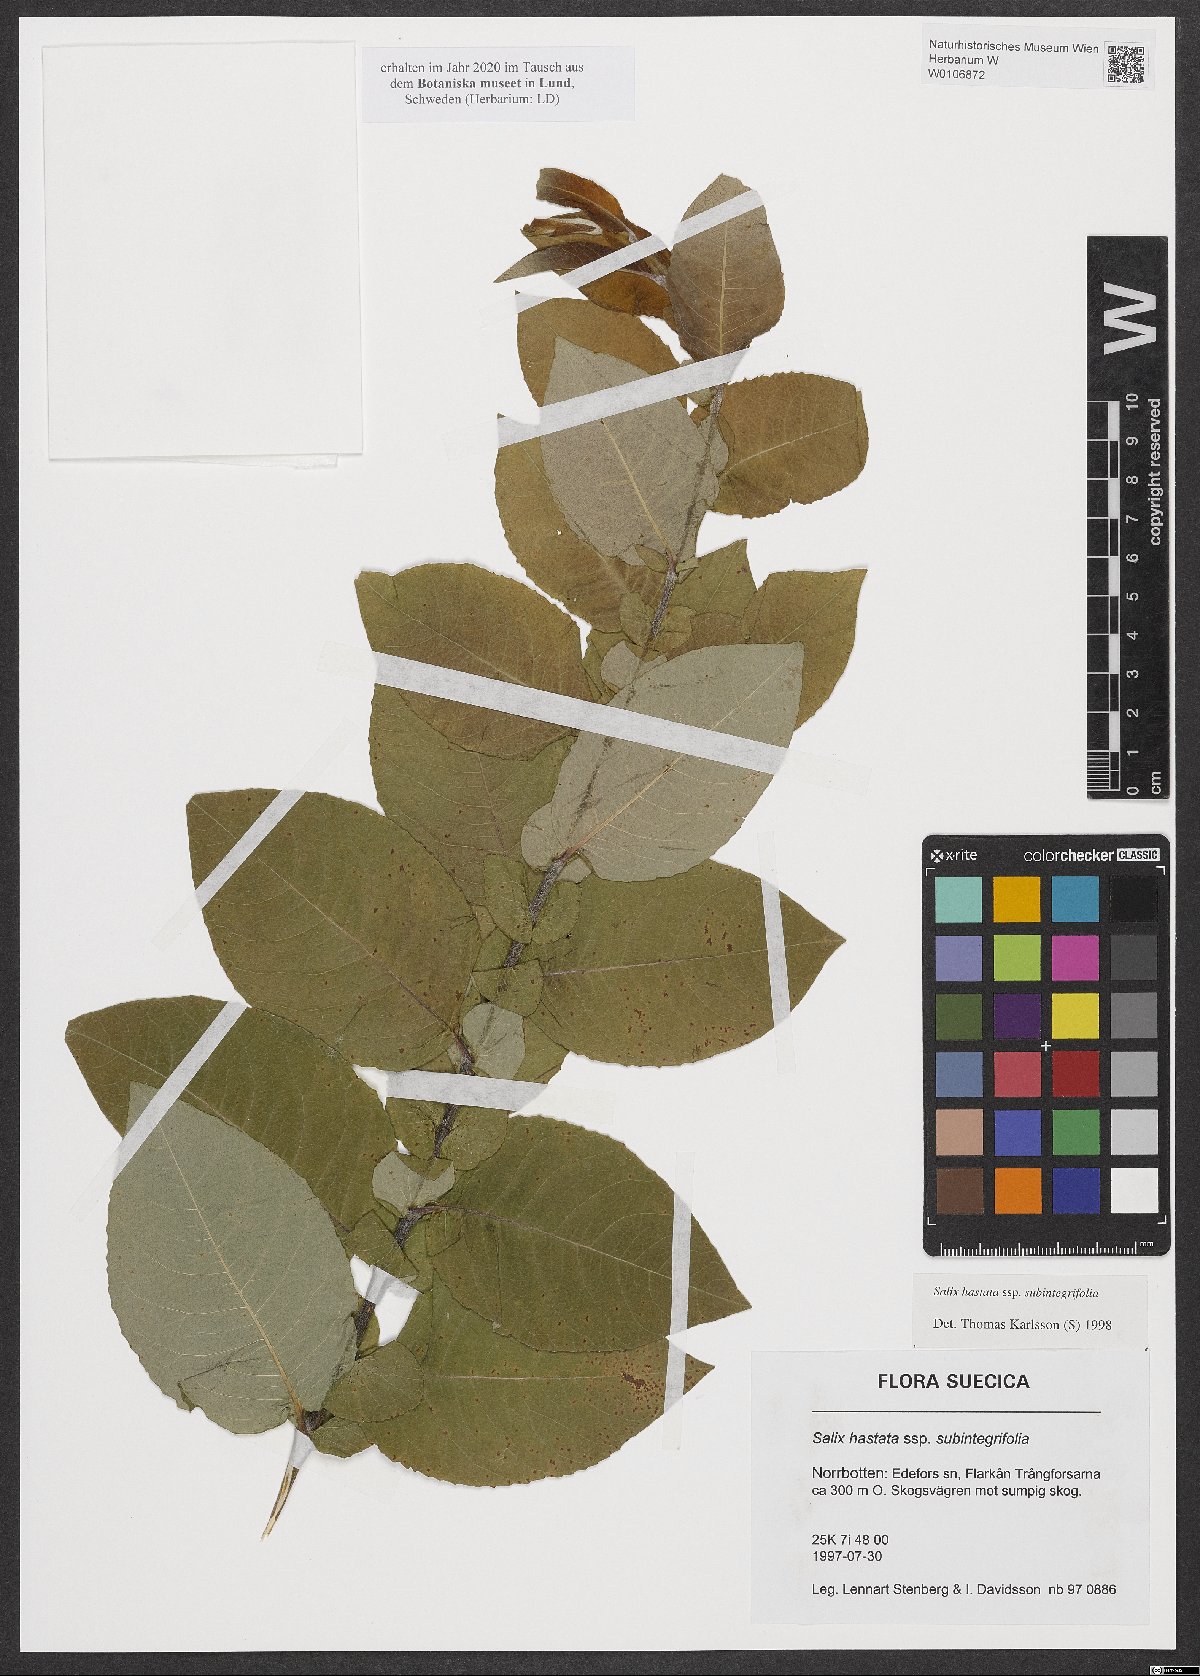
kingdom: Plantae
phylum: Tracheophyta
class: Magnoliopsida
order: Malpighiales
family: Salicaceae
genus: Salix
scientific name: Salix hastata
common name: Halberd willow
